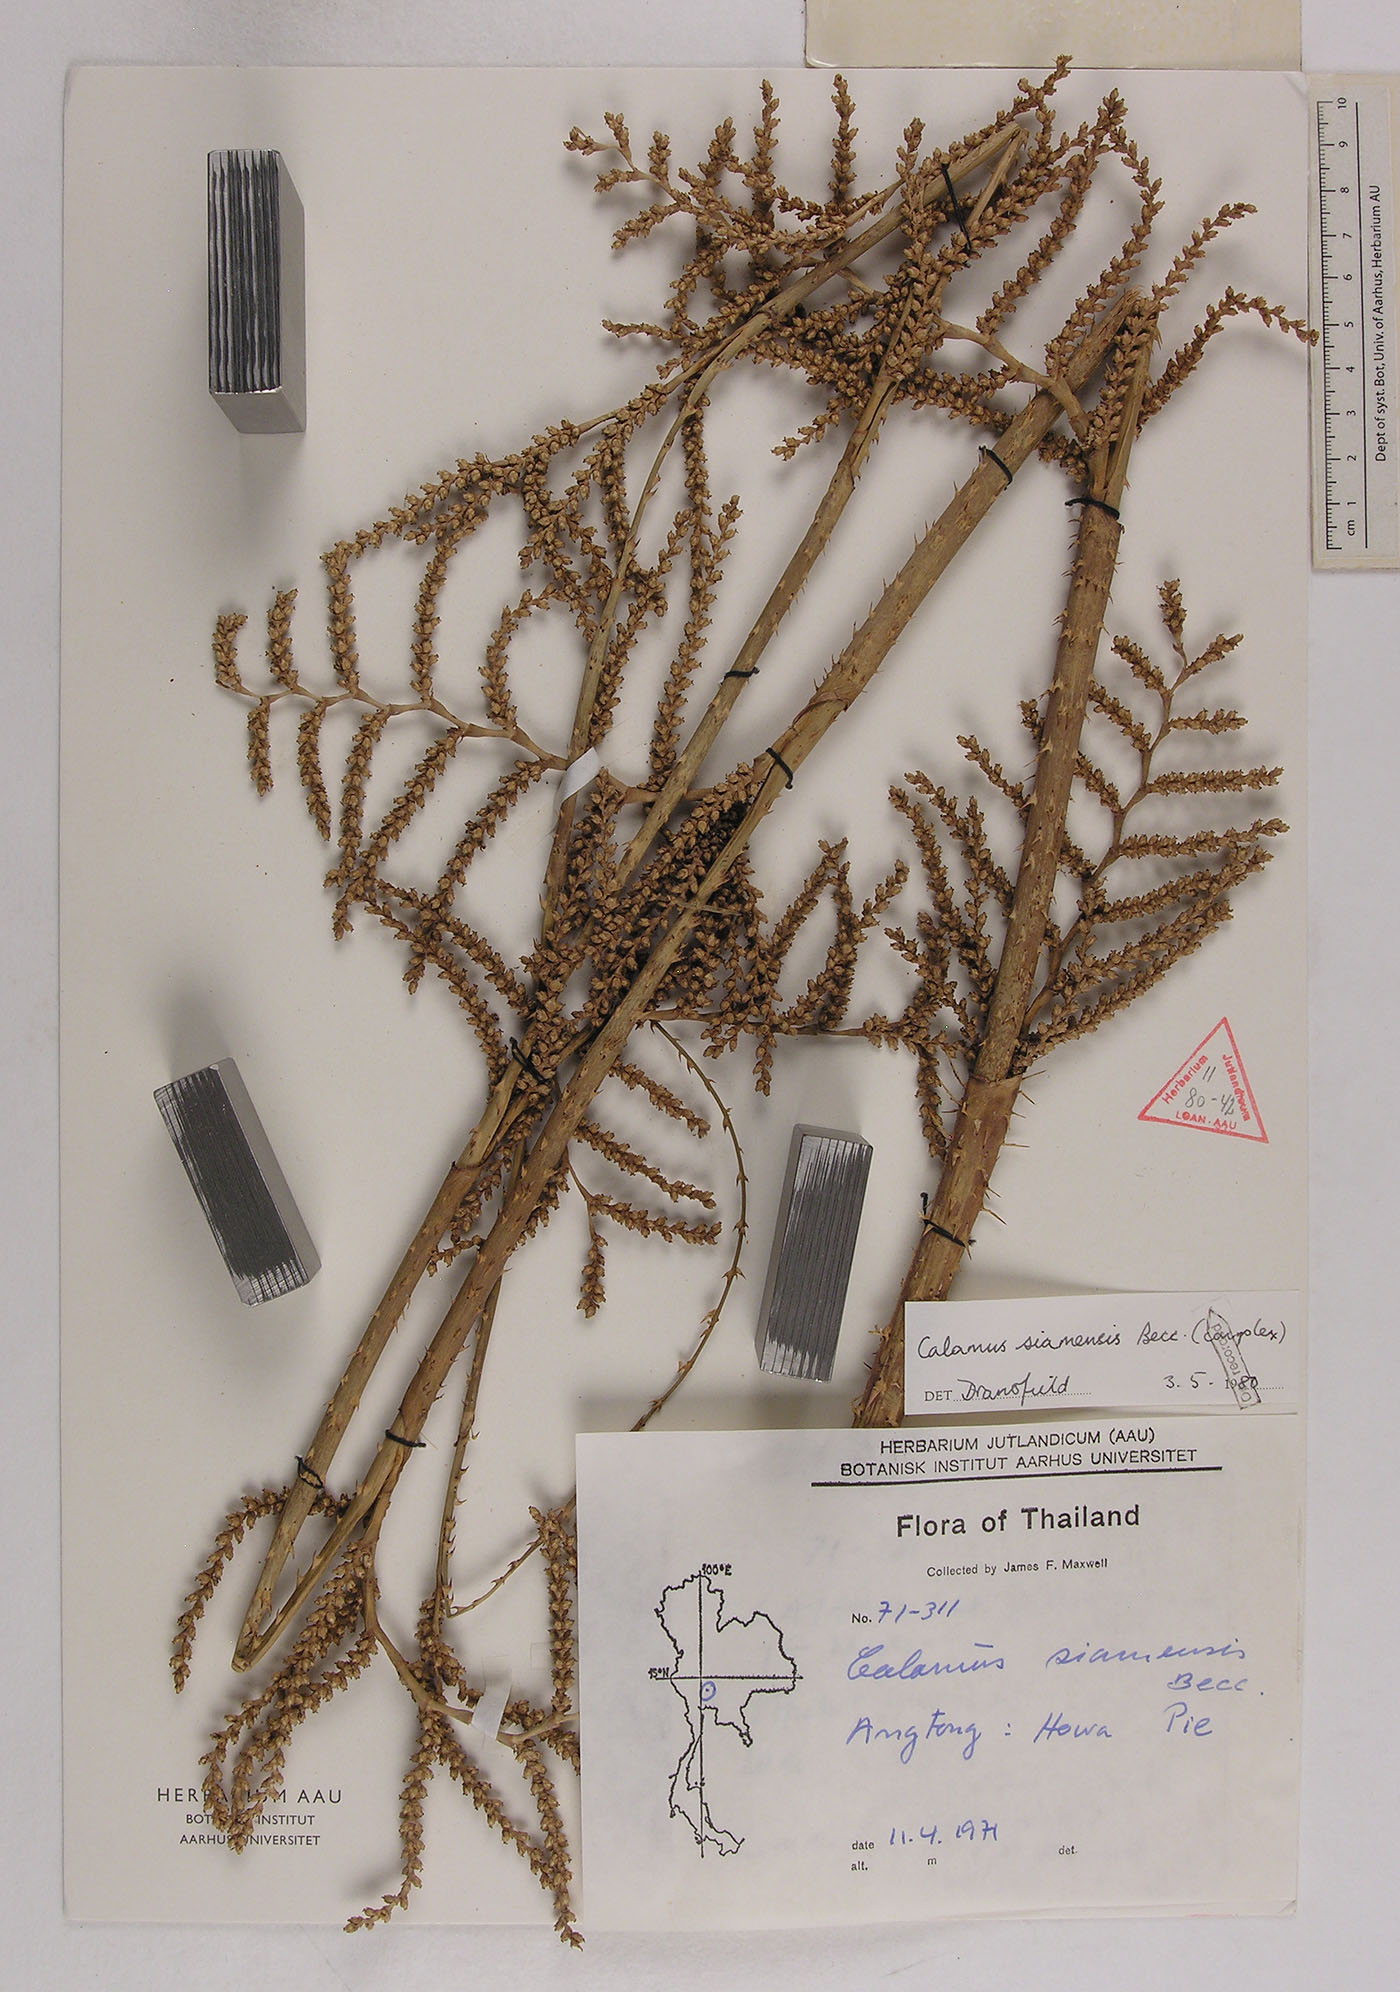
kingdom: Plantae
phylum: Tracheophyta
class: Liliopsida
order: Arecales
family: Arecaceae
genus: Calamus
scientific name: Calamus viminalis
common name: Osier-like rattan palm
